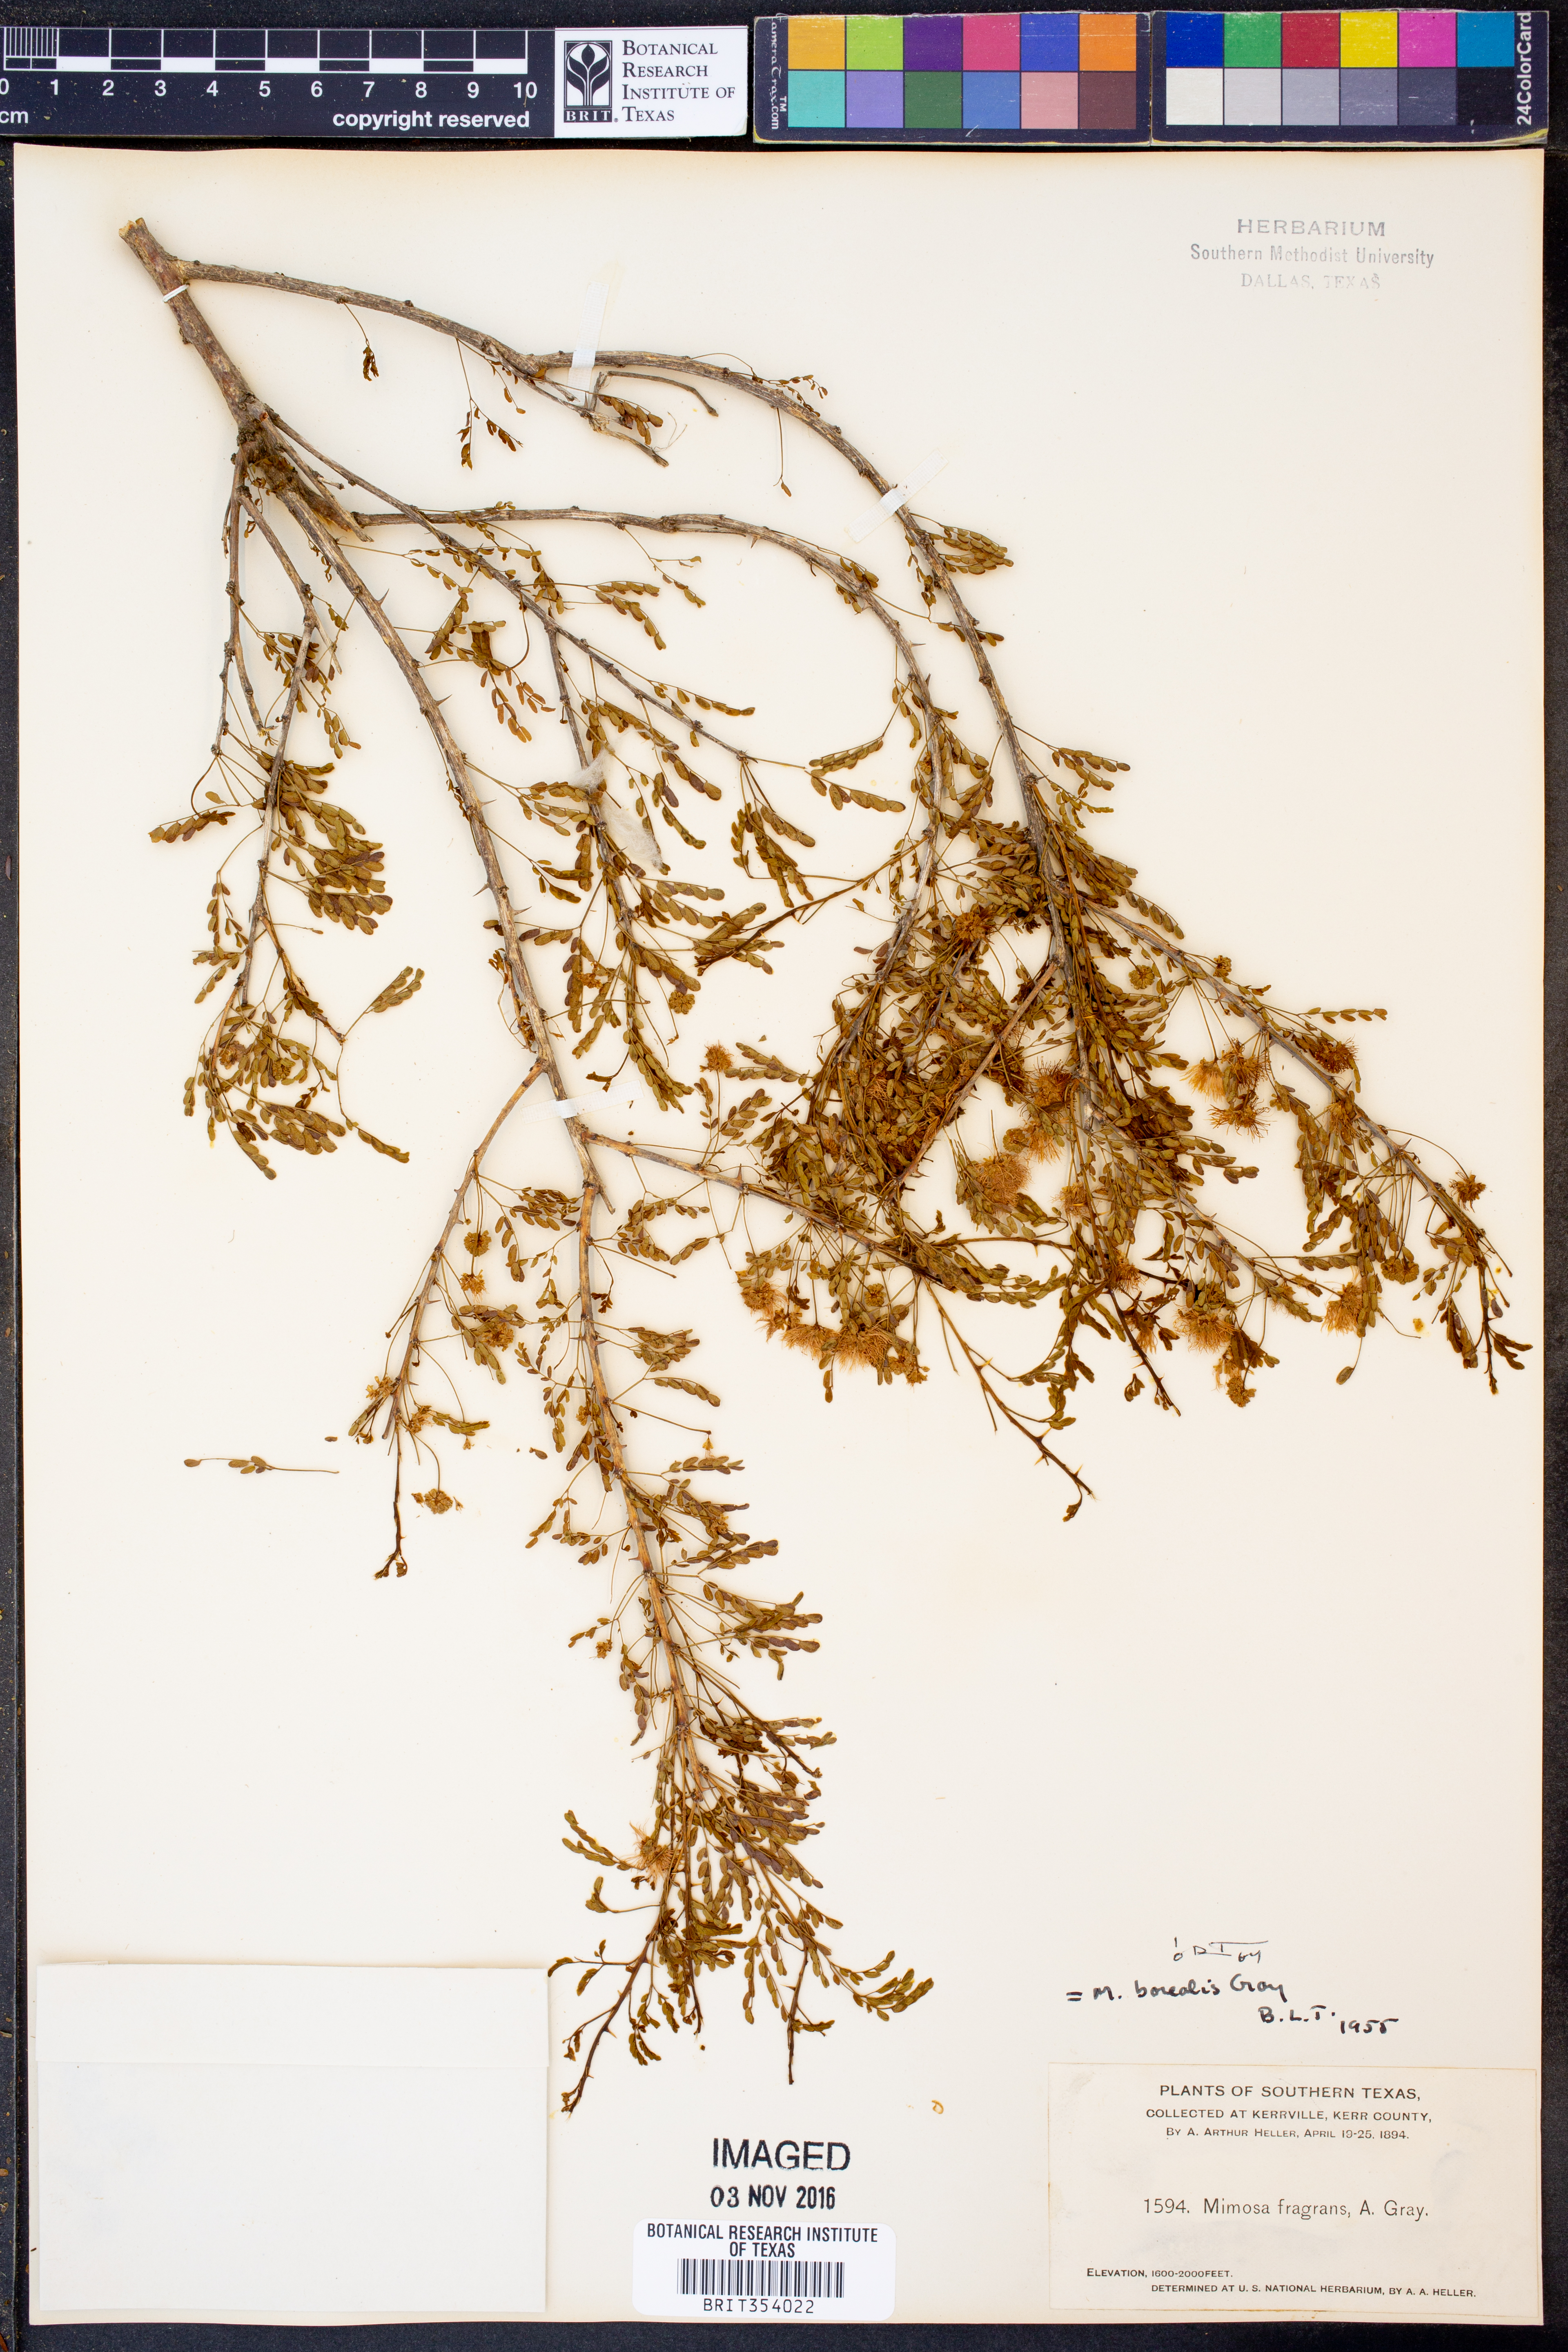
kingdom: Plantae
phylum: Tracheophyta
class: Magnoliopsida
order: Fabales
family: Fabaceae
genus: Mimosa
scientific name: Mimosa borealis
